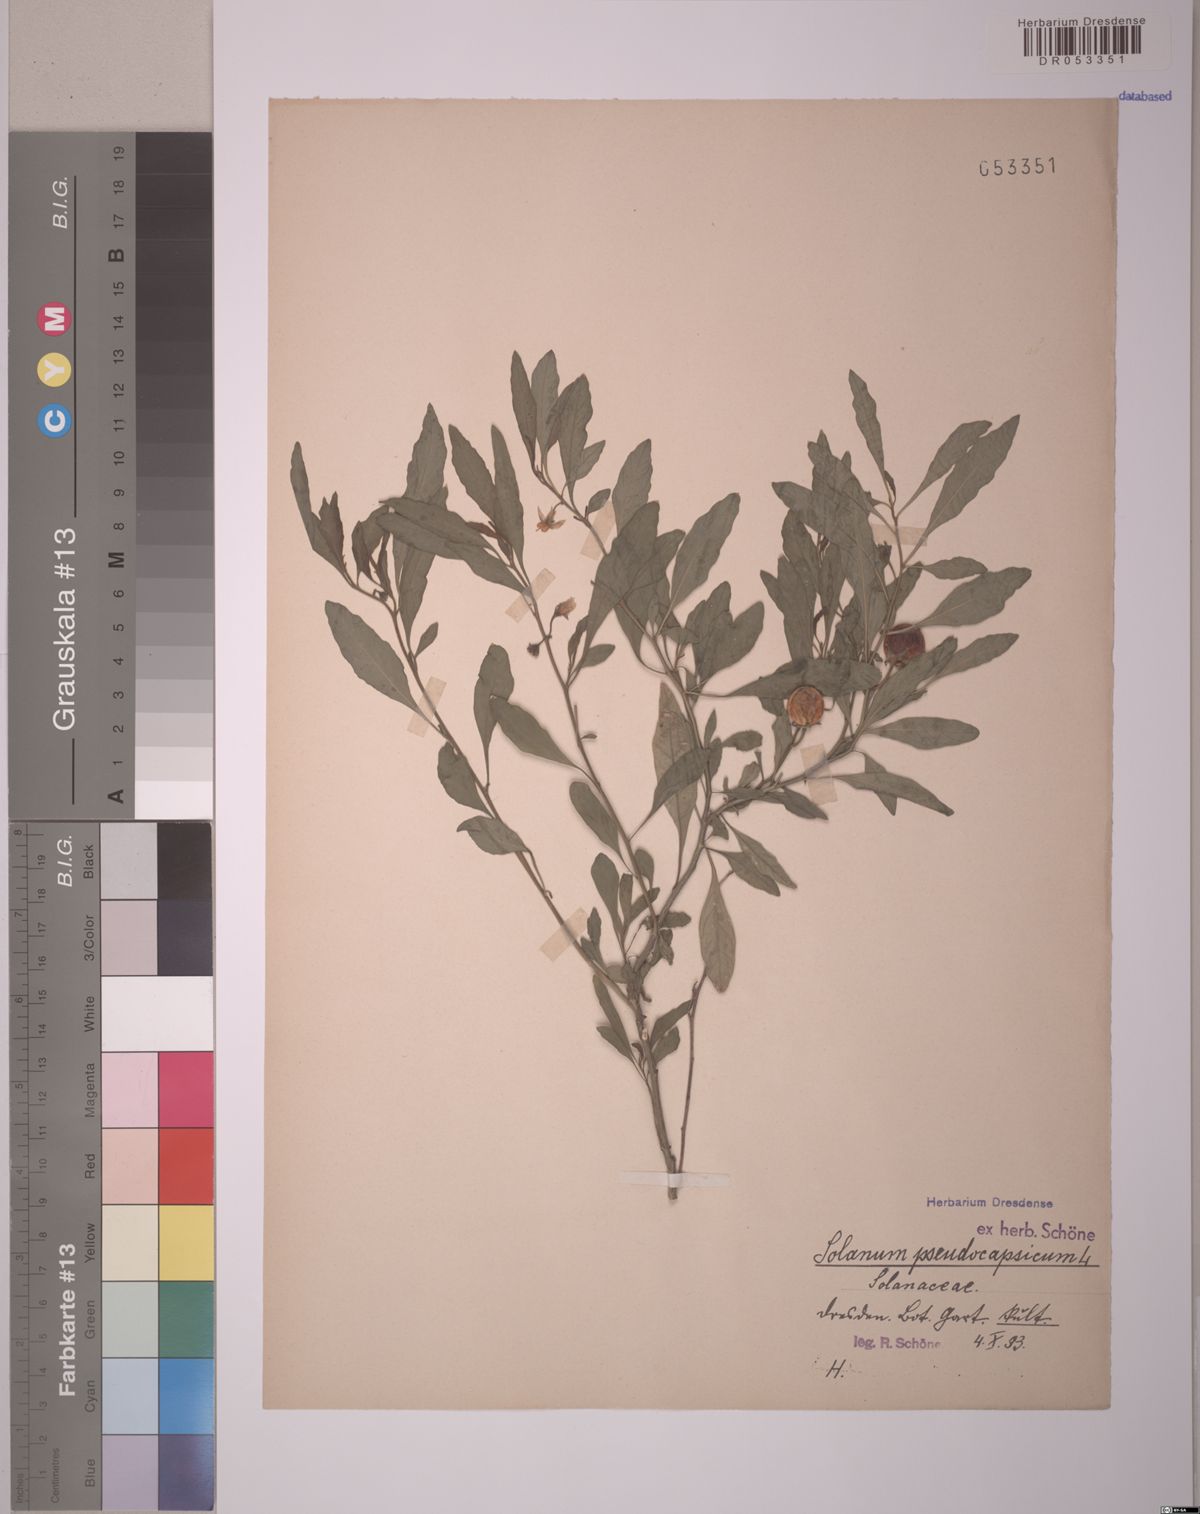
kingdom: Plantae
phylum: Tracheophyta
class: Magnoliopsida
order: Solanales
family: Solanaceae
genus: Solanum
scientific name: Solanum pseudocapsicum
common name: Jerusalem cherry
